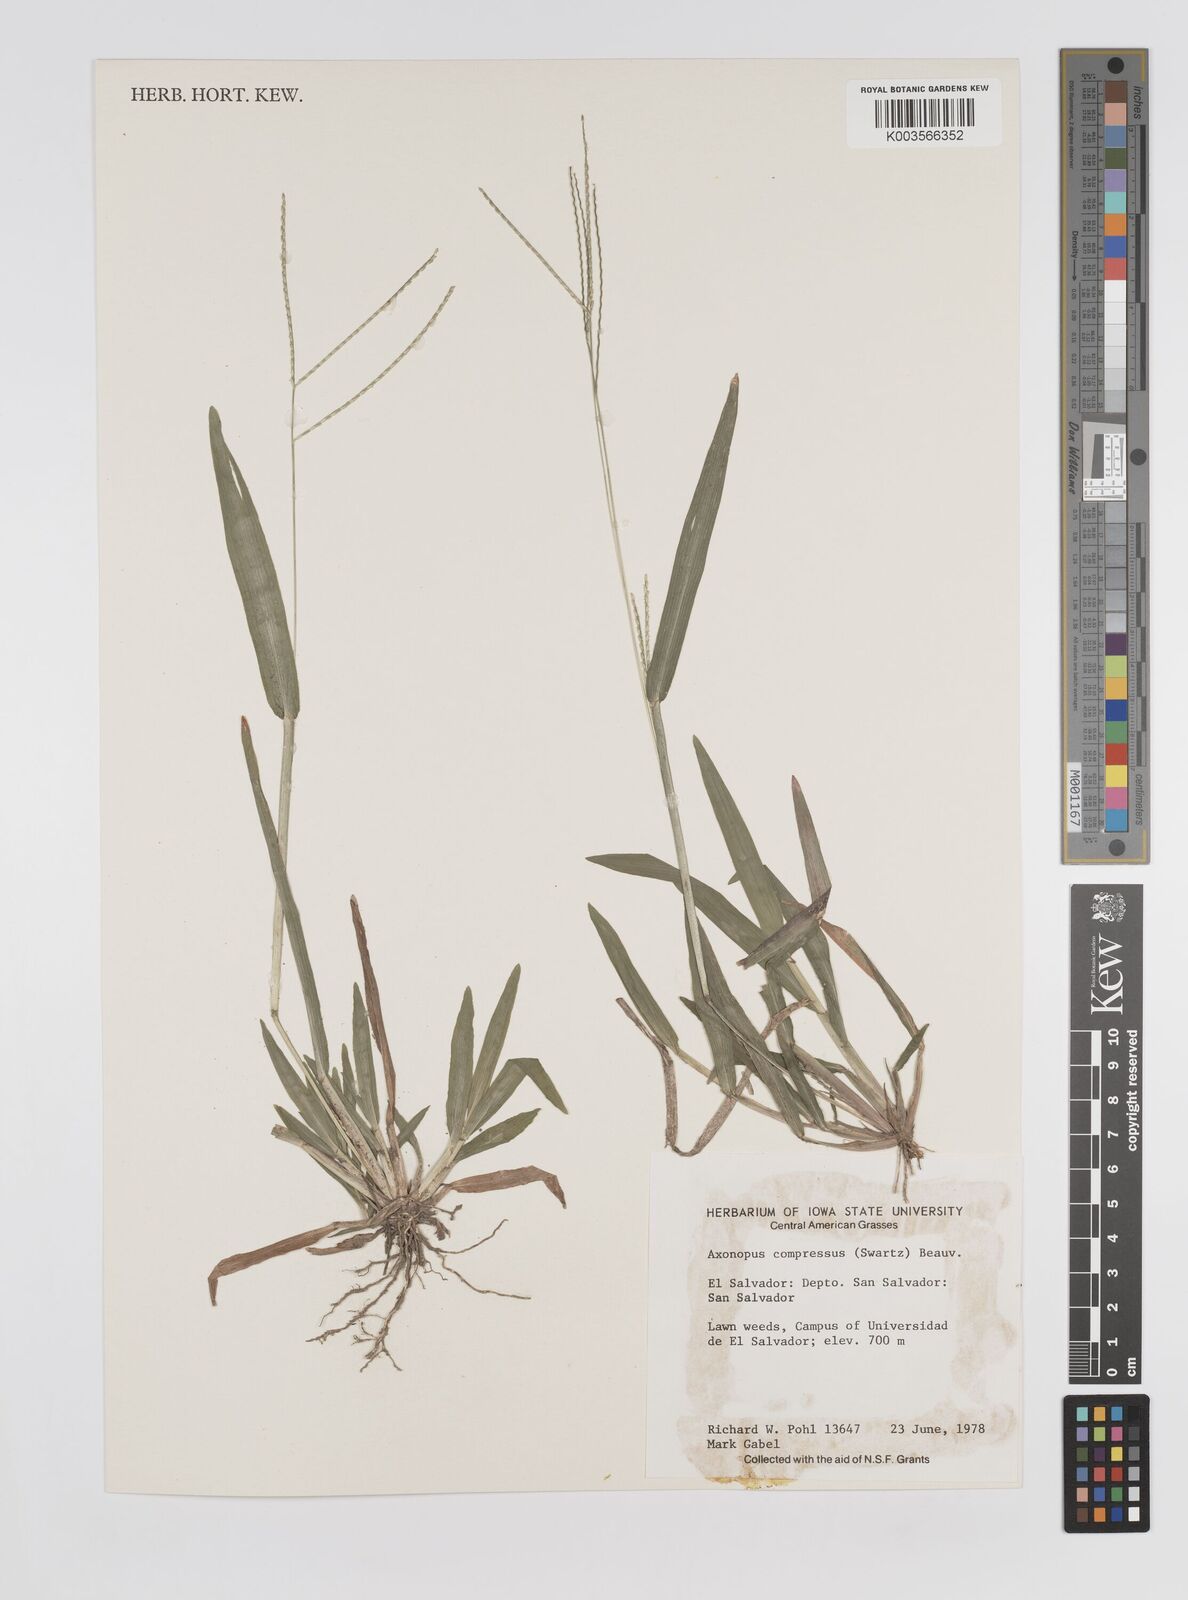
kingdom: Plantae
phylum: Tracheophyta
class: Liliopsida
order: Poales
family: Poaceae
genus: Axonopus
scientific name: Axonopus compressus
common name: American carpet grass
